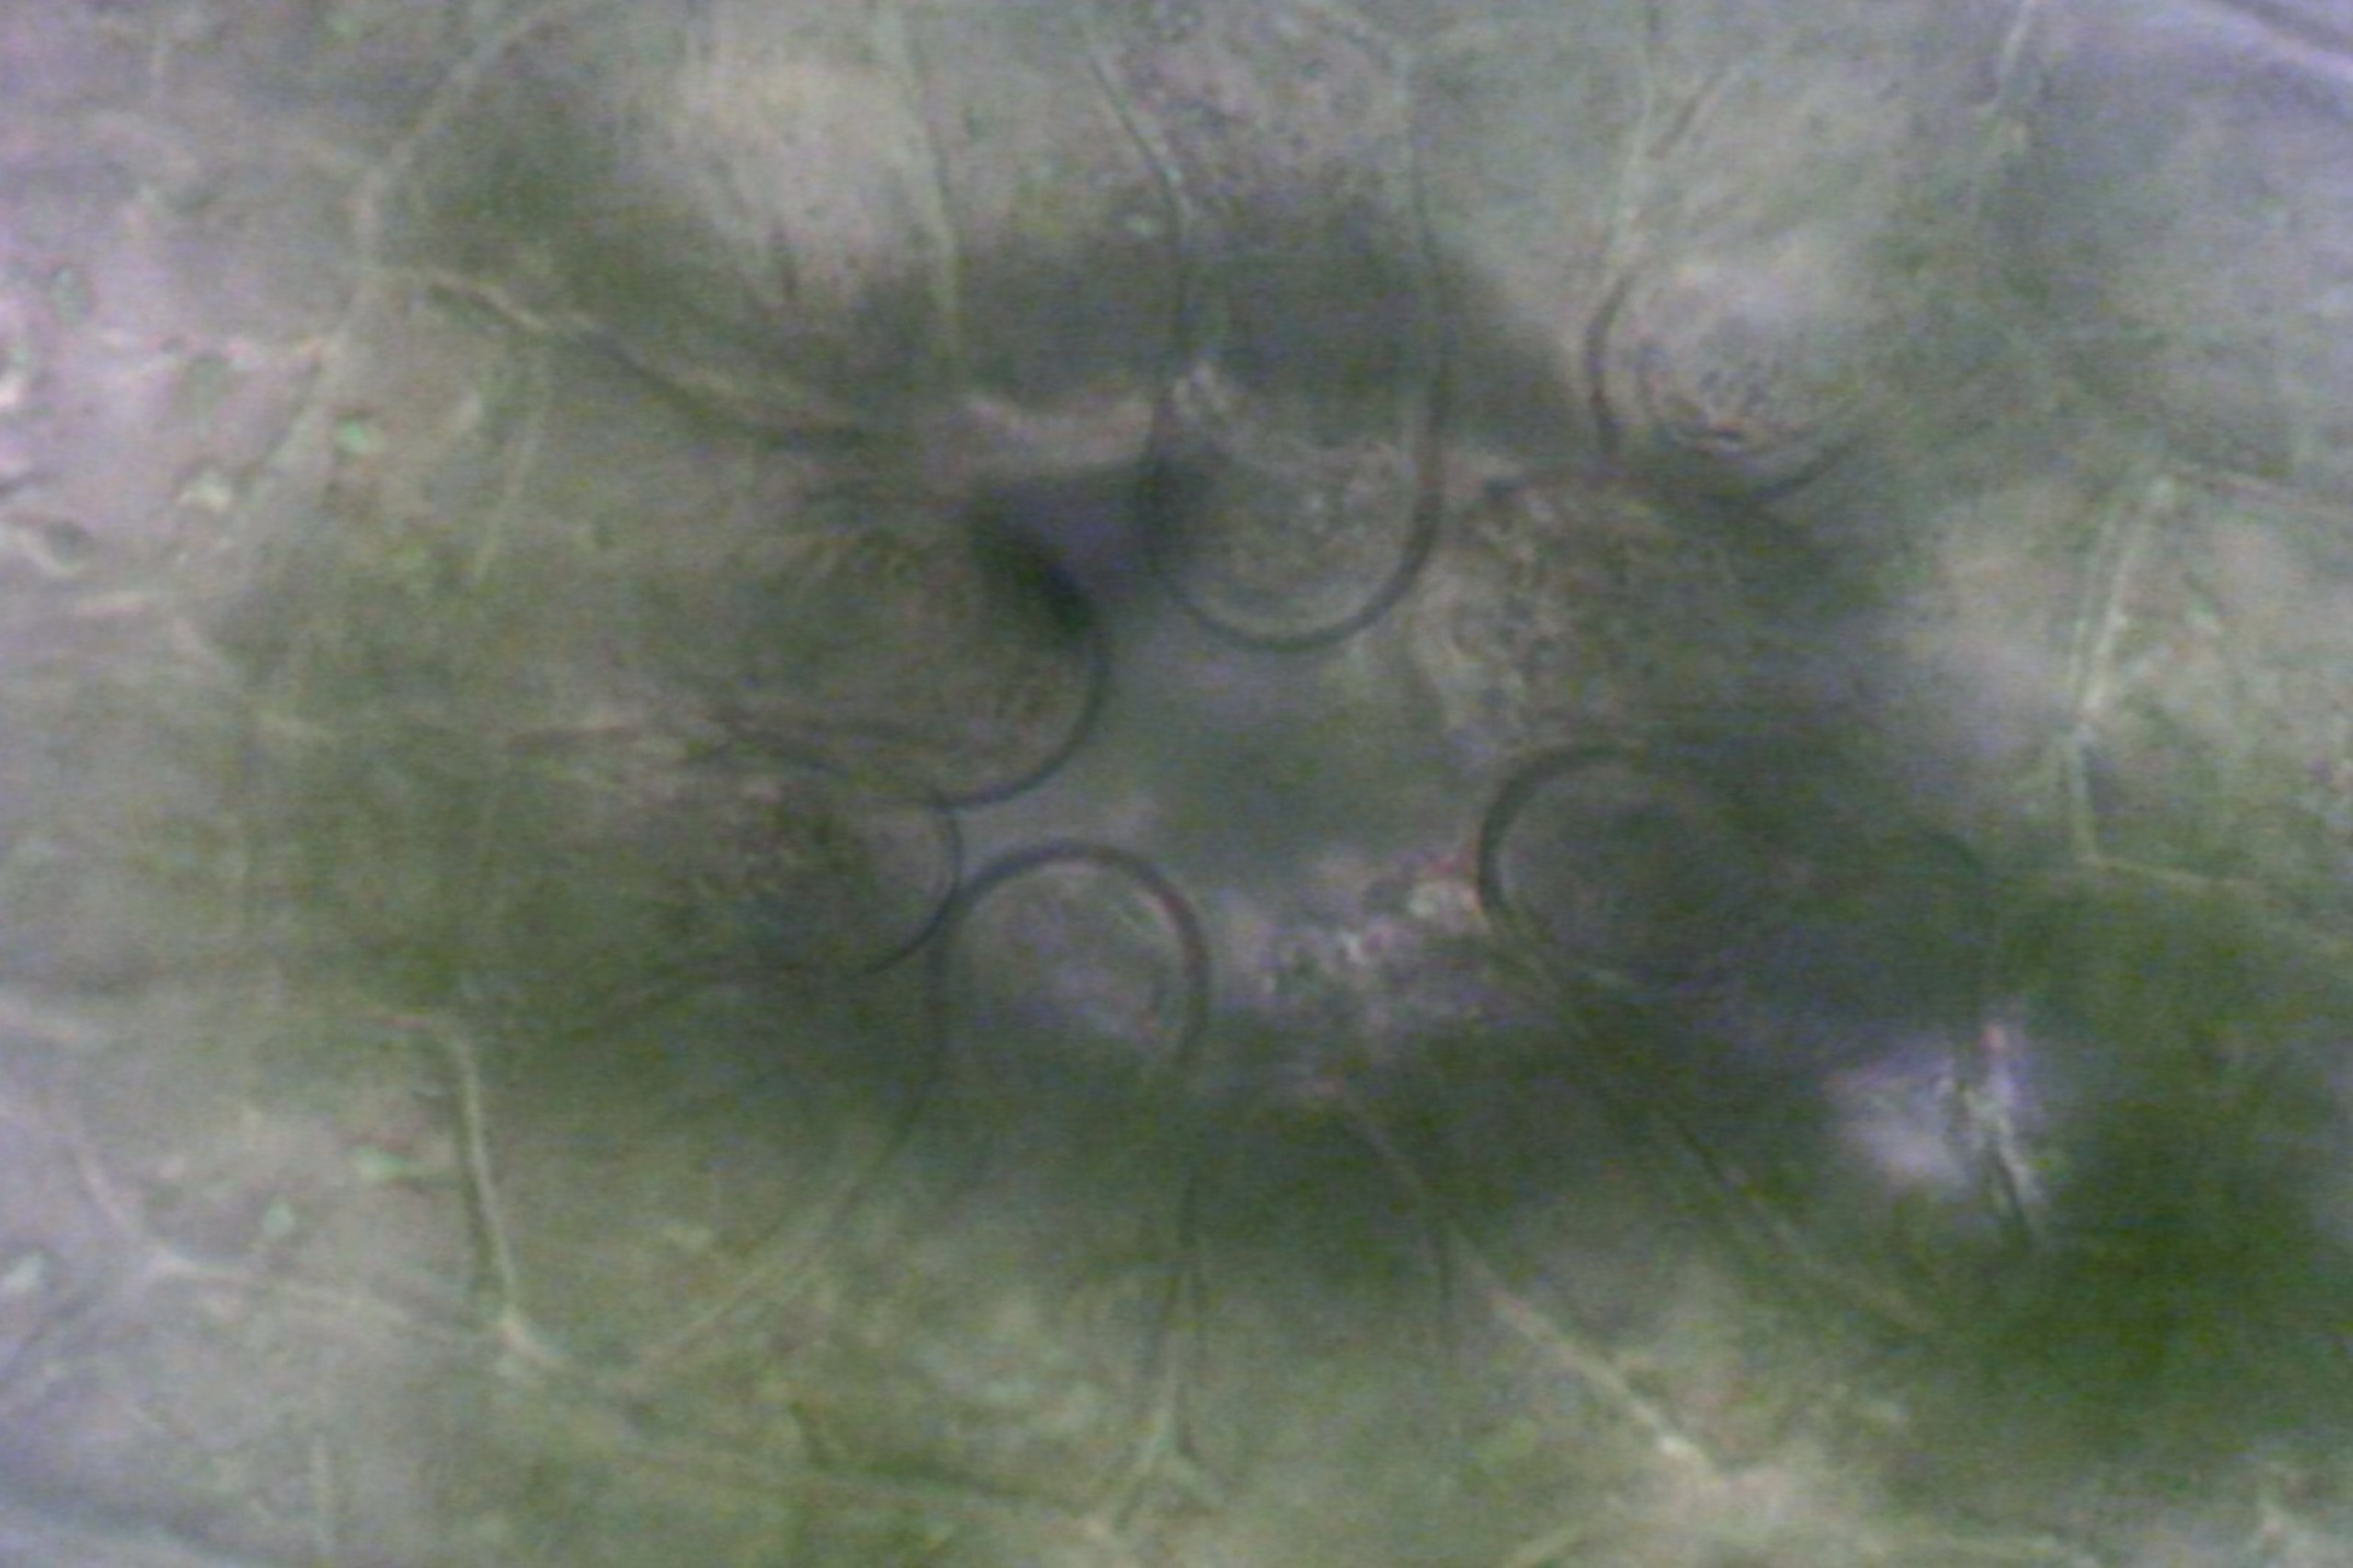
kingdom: Plantae
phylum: Bryophyta
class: Bryopsida
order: Orthotrichales
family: Orthotrichaceae
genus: Orthotrichum
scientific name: Orthotrichum anomalum
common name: Mørk furehætte
